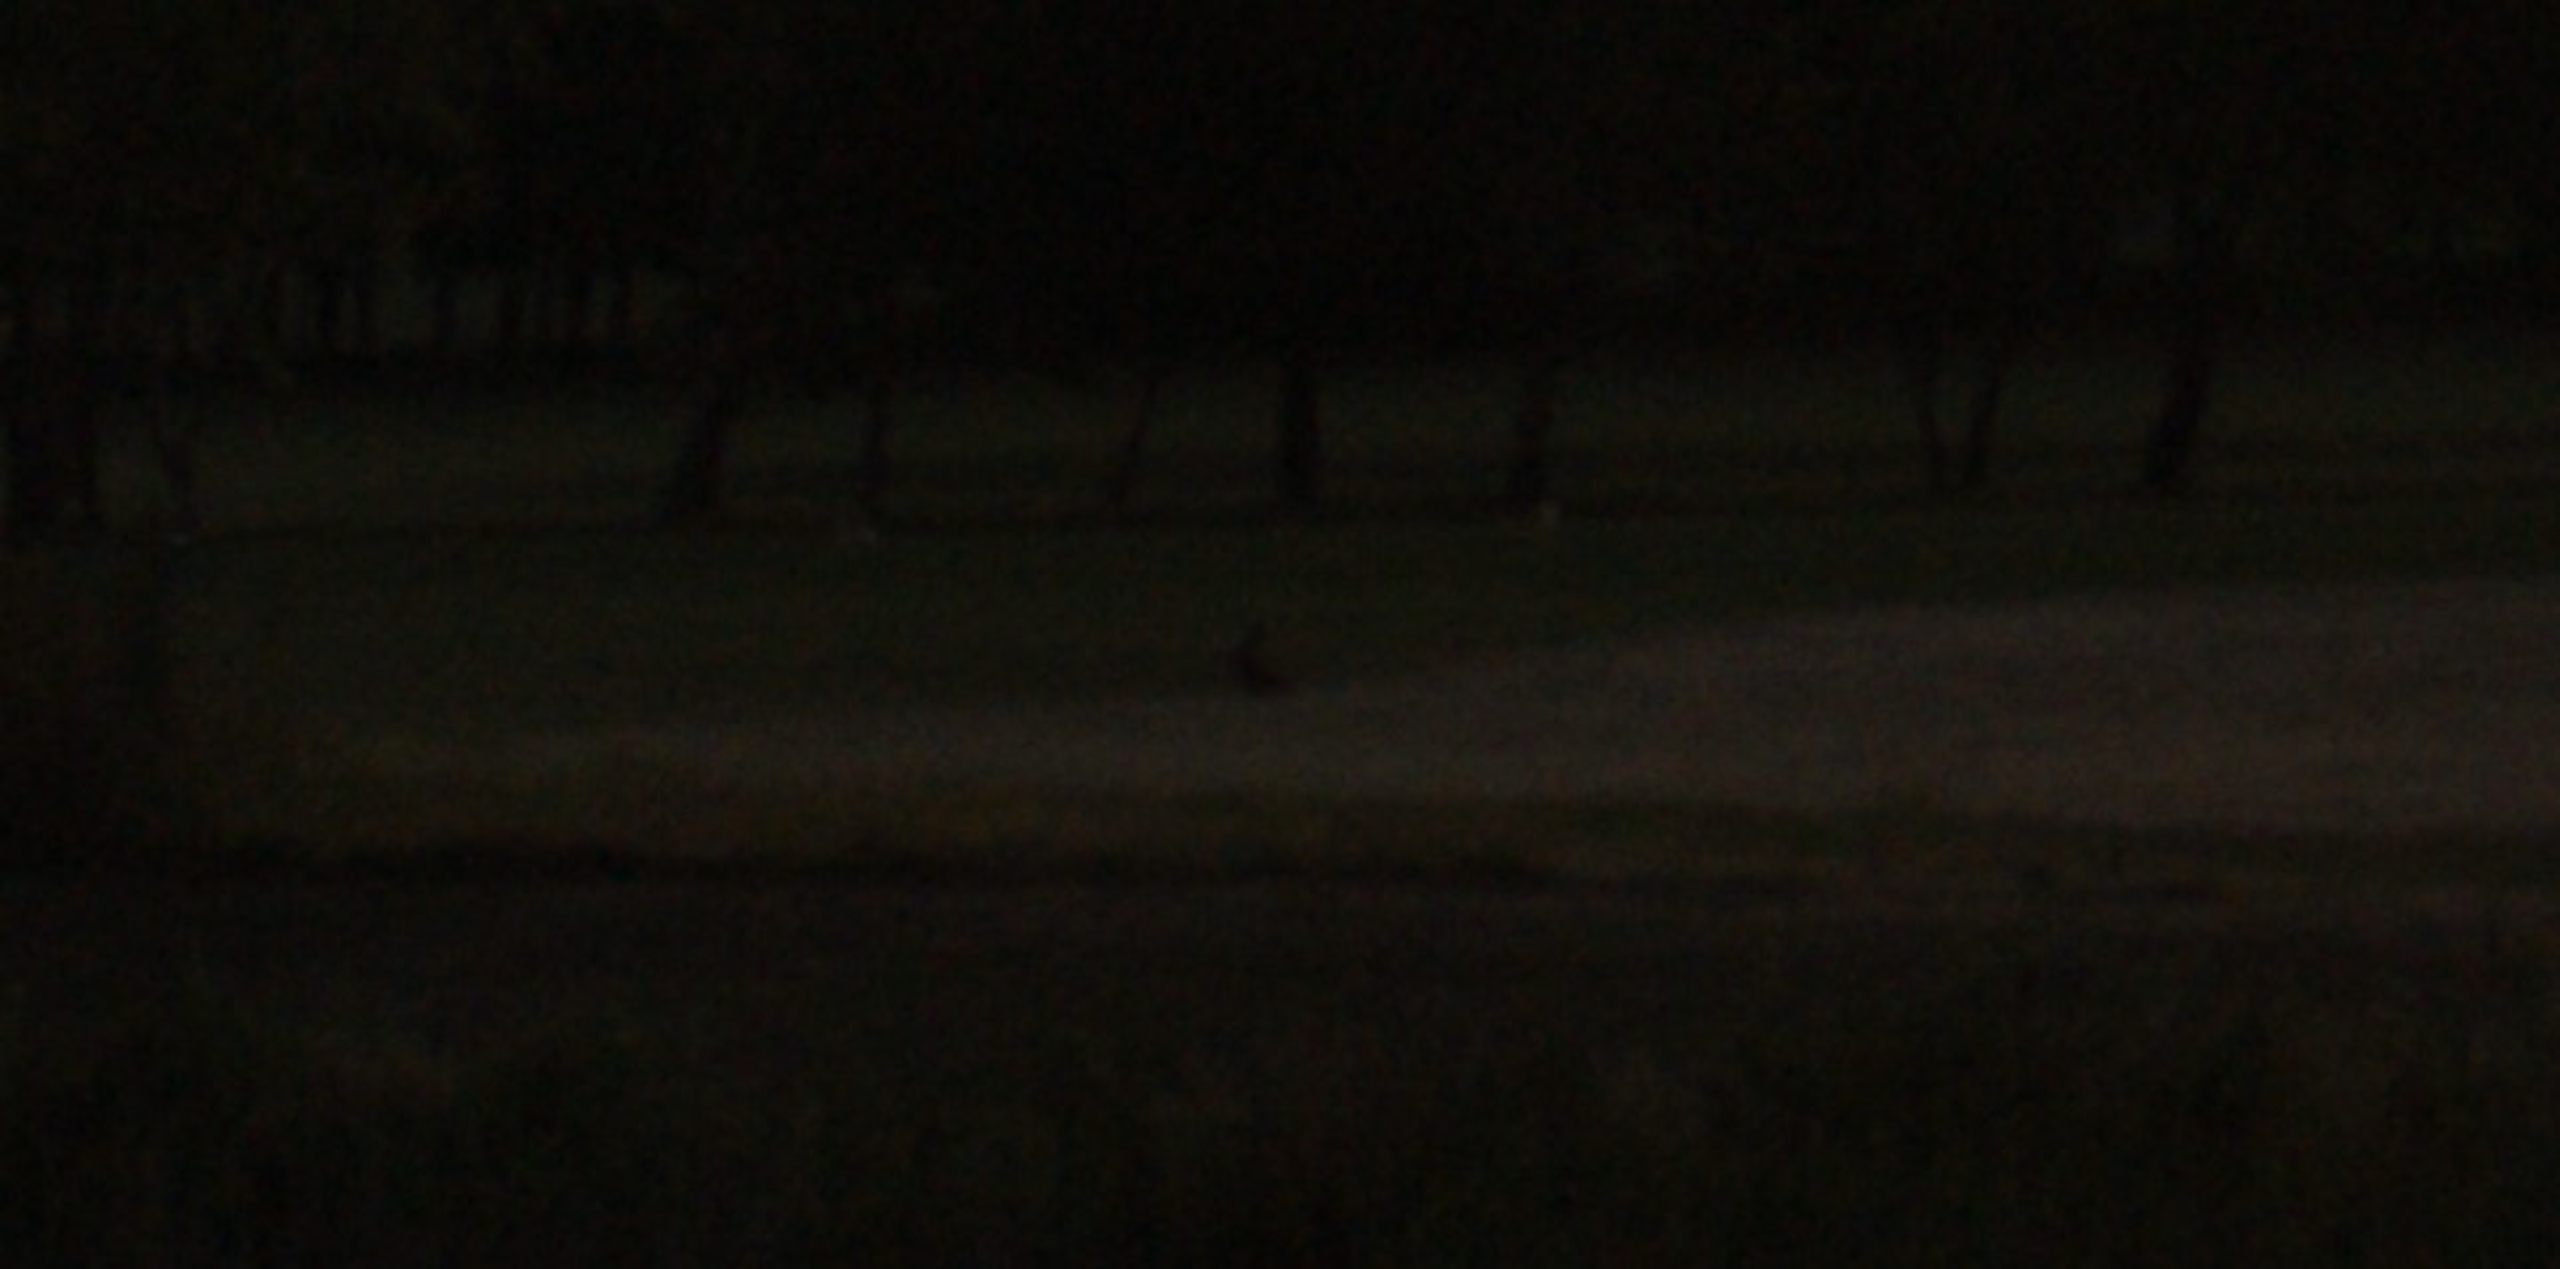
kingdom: Animalia
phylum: Chordata
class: Mammalia
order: Lagomorpha
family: Leporidae
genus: Lepus
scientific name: Lepus europaeus
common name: Hare
